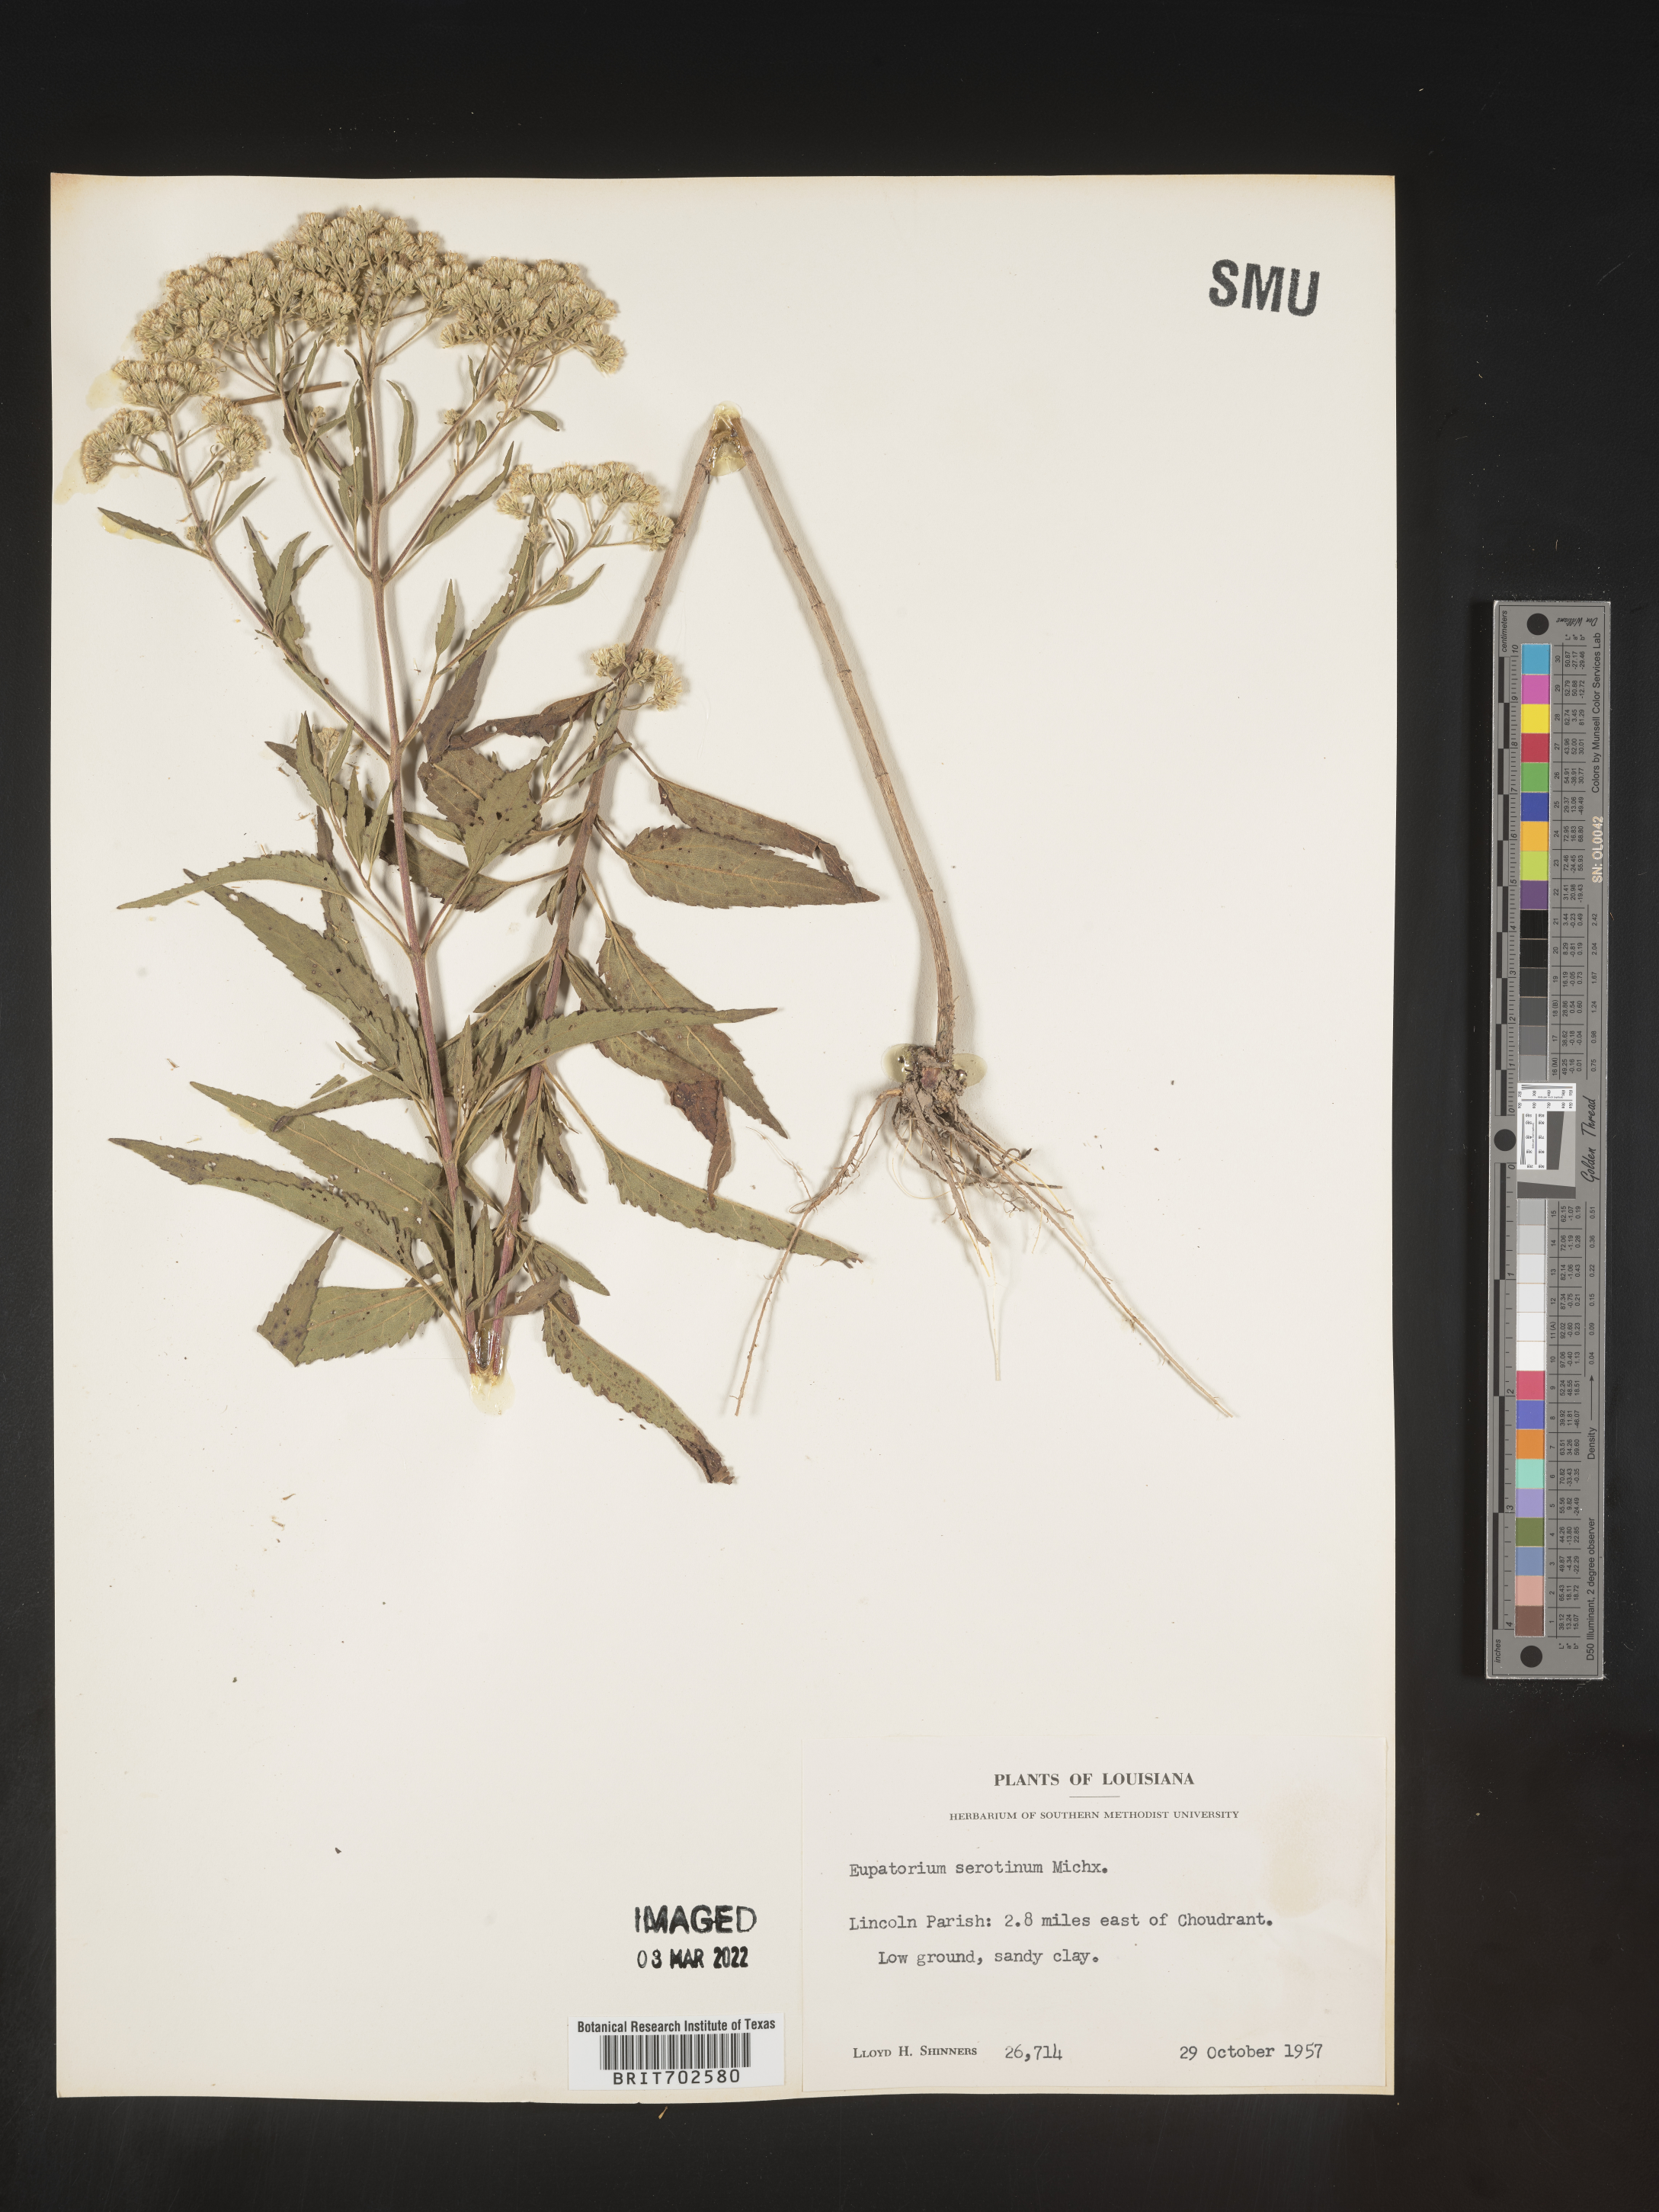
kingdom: Plantae
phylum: Tracheophyta
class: Magnoliopsida
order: Asterales
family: Asteraceae
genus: Eupatorium
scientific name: Eupatorium serotinum
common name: Late boneset
